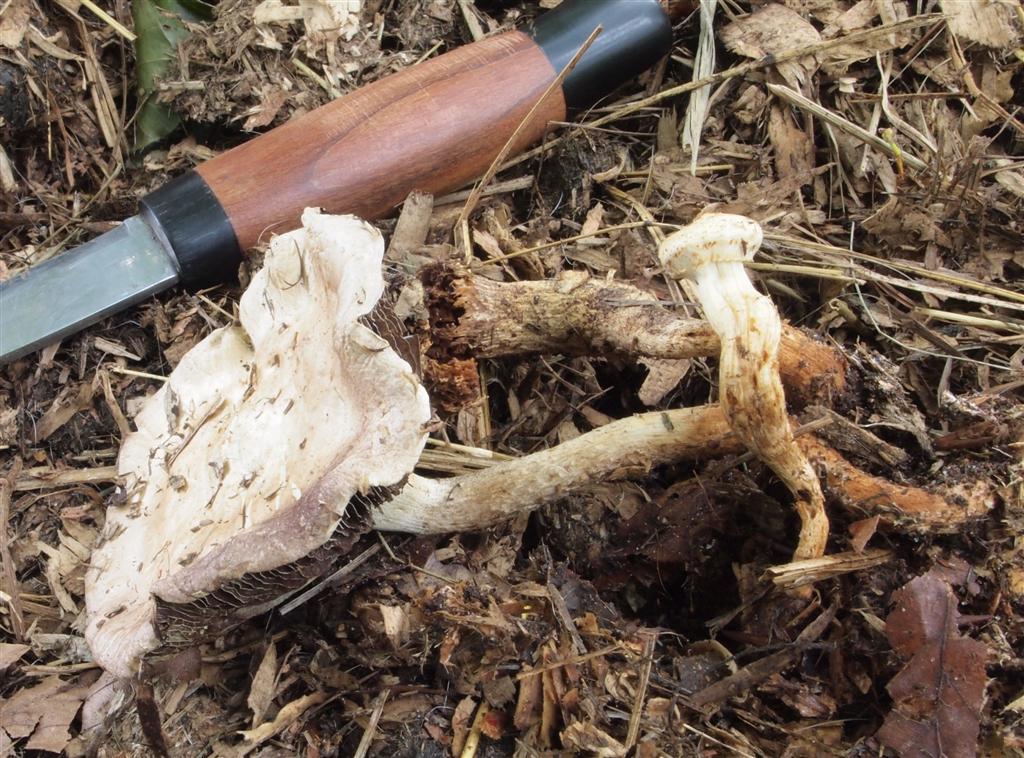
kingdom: Fungi
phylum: Basidiomycota
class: Agaricomycetes
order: Agaricales
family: Strophariaceae
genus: Leratiomyces
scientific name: Leratiomyces percevalii
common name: træflis-bredblad
